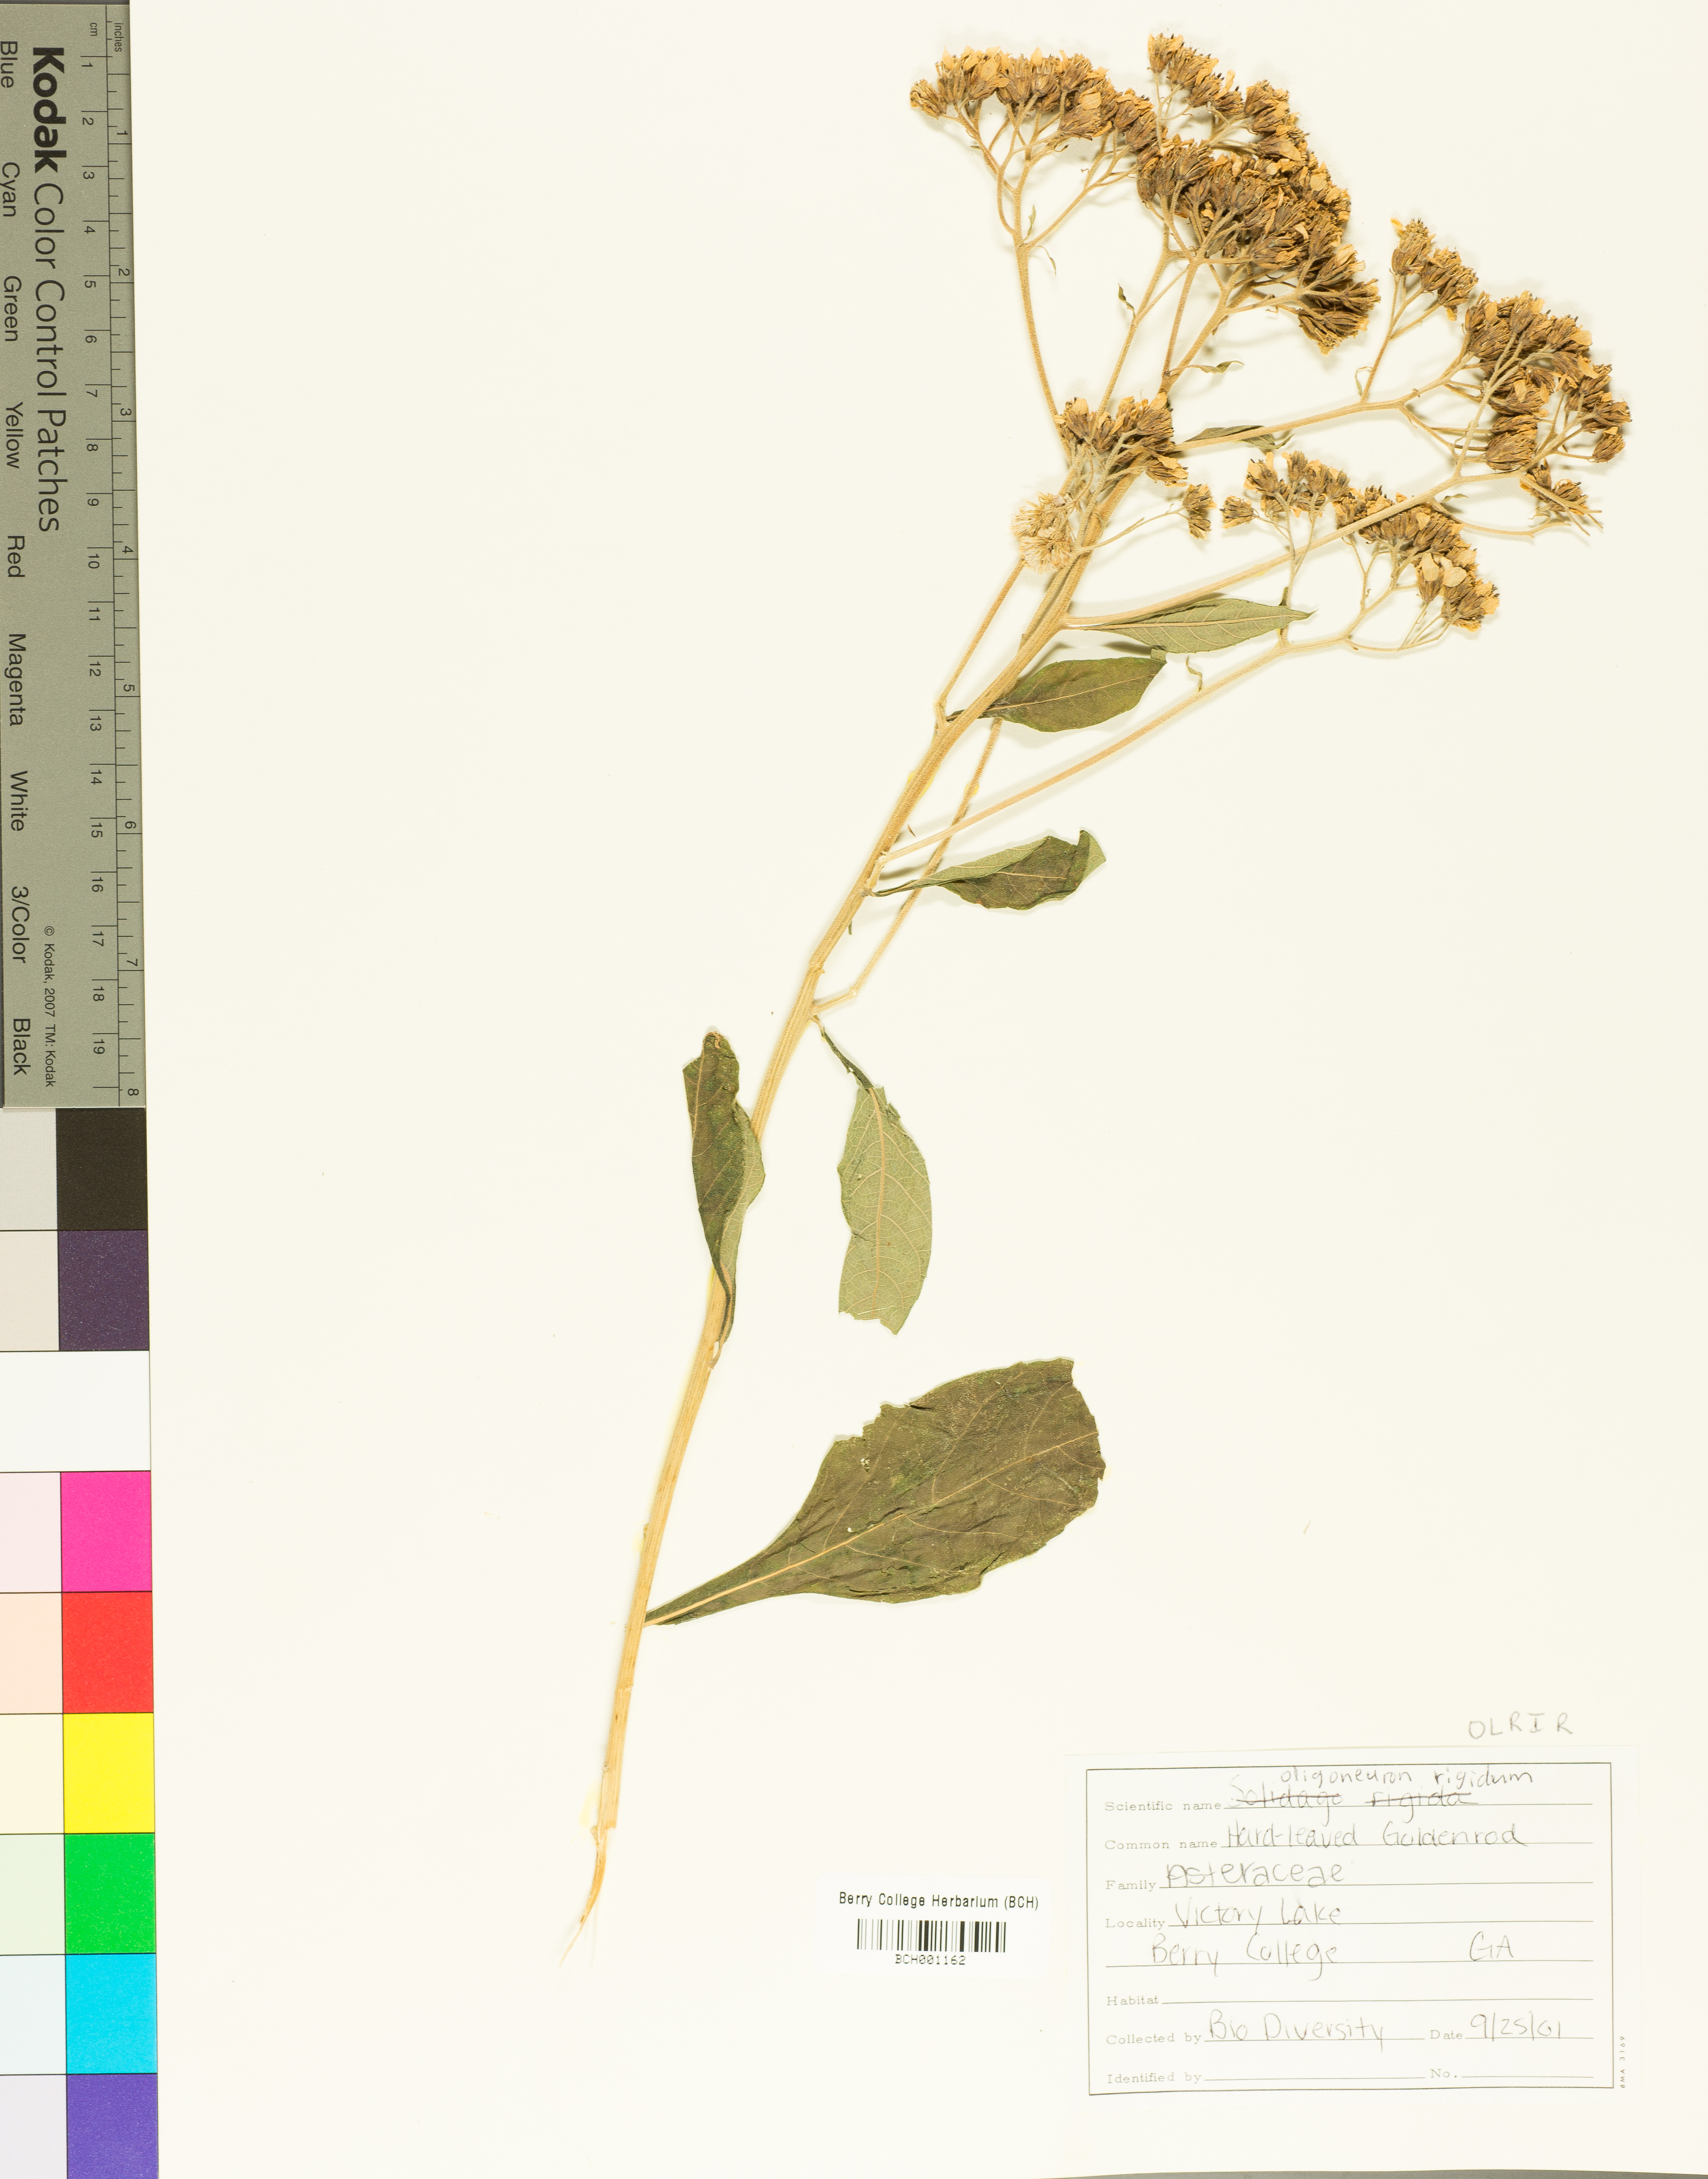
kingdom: Plantae
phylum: Tracheophyta
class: Magnoliopsida
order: Asterales
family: Asteraceae
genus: Solidago
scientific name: Solidago rigida
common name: Rigid goldenrod
